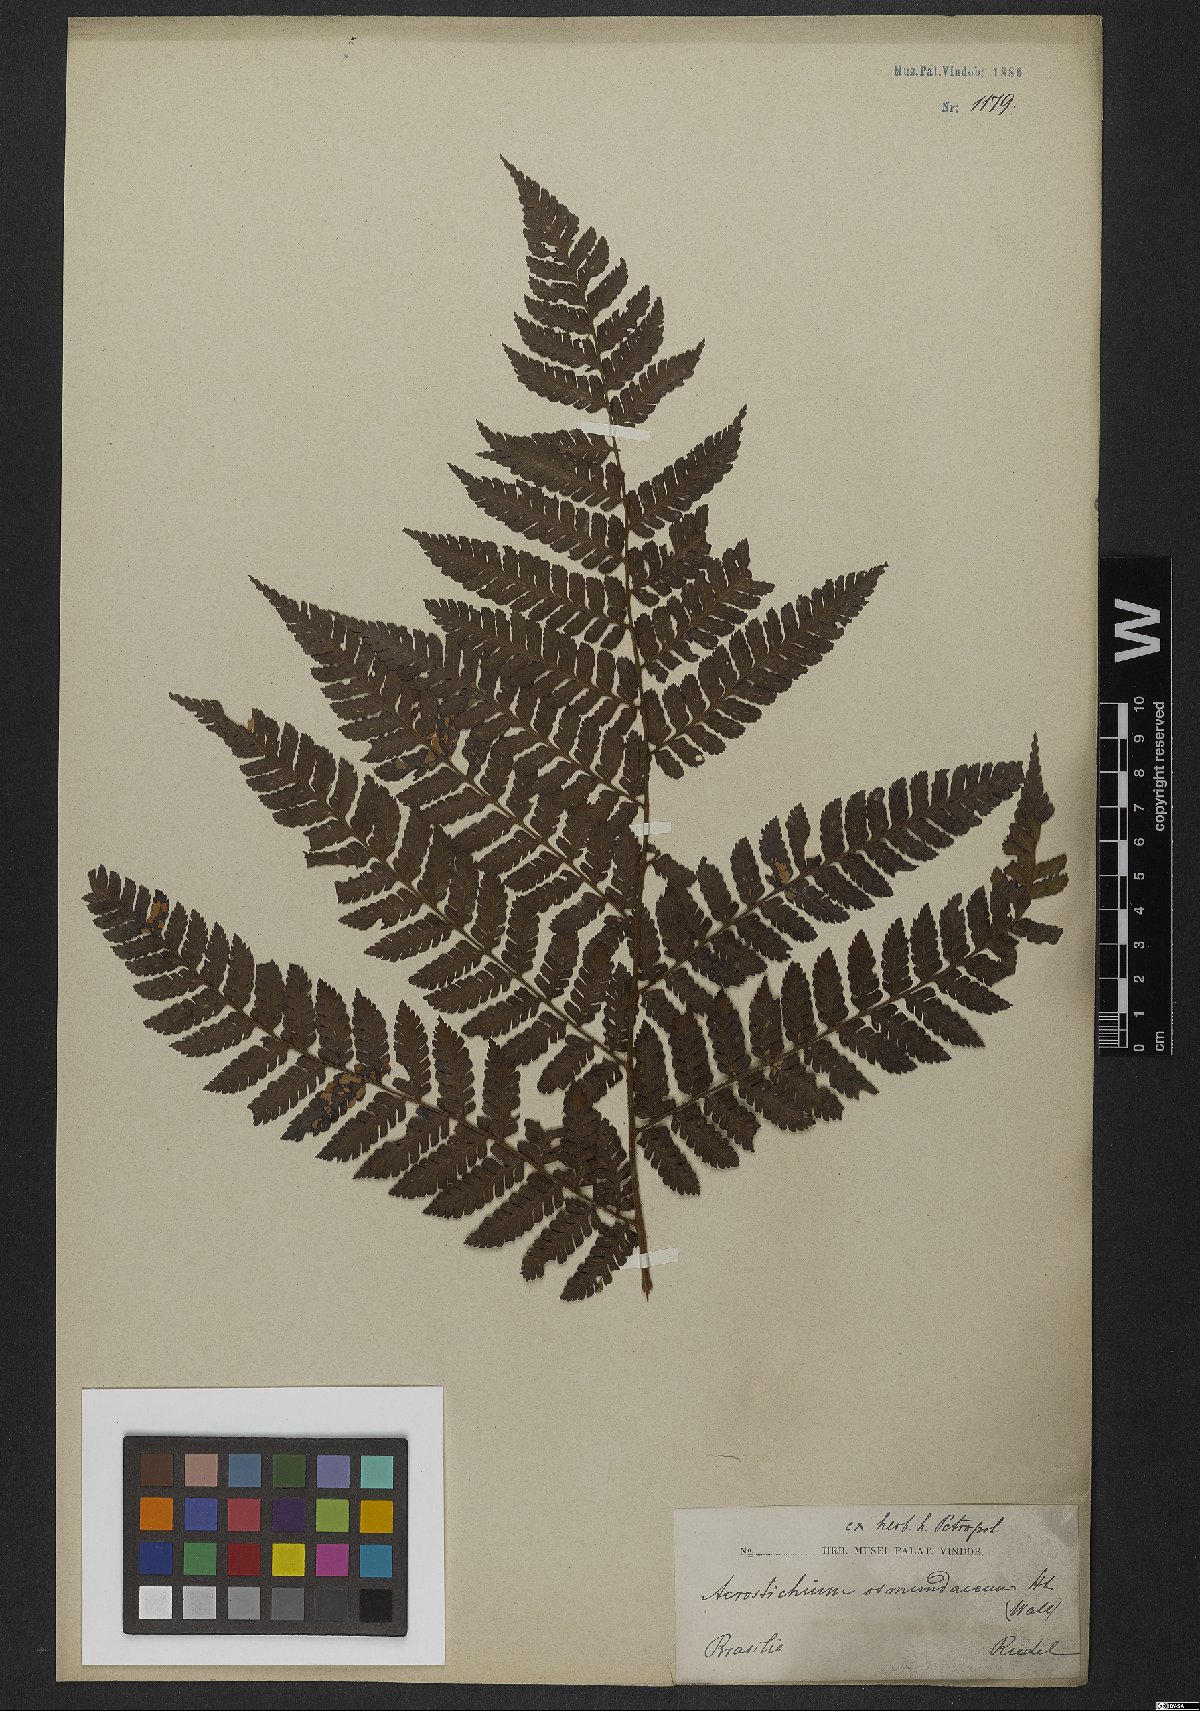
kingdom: Plantae
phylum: Tracheophyta
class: Polypodiopsida
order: Polypodiales
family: Dryopteridaceae
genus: Polybotrya
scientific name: Polybotrya osmundacea
